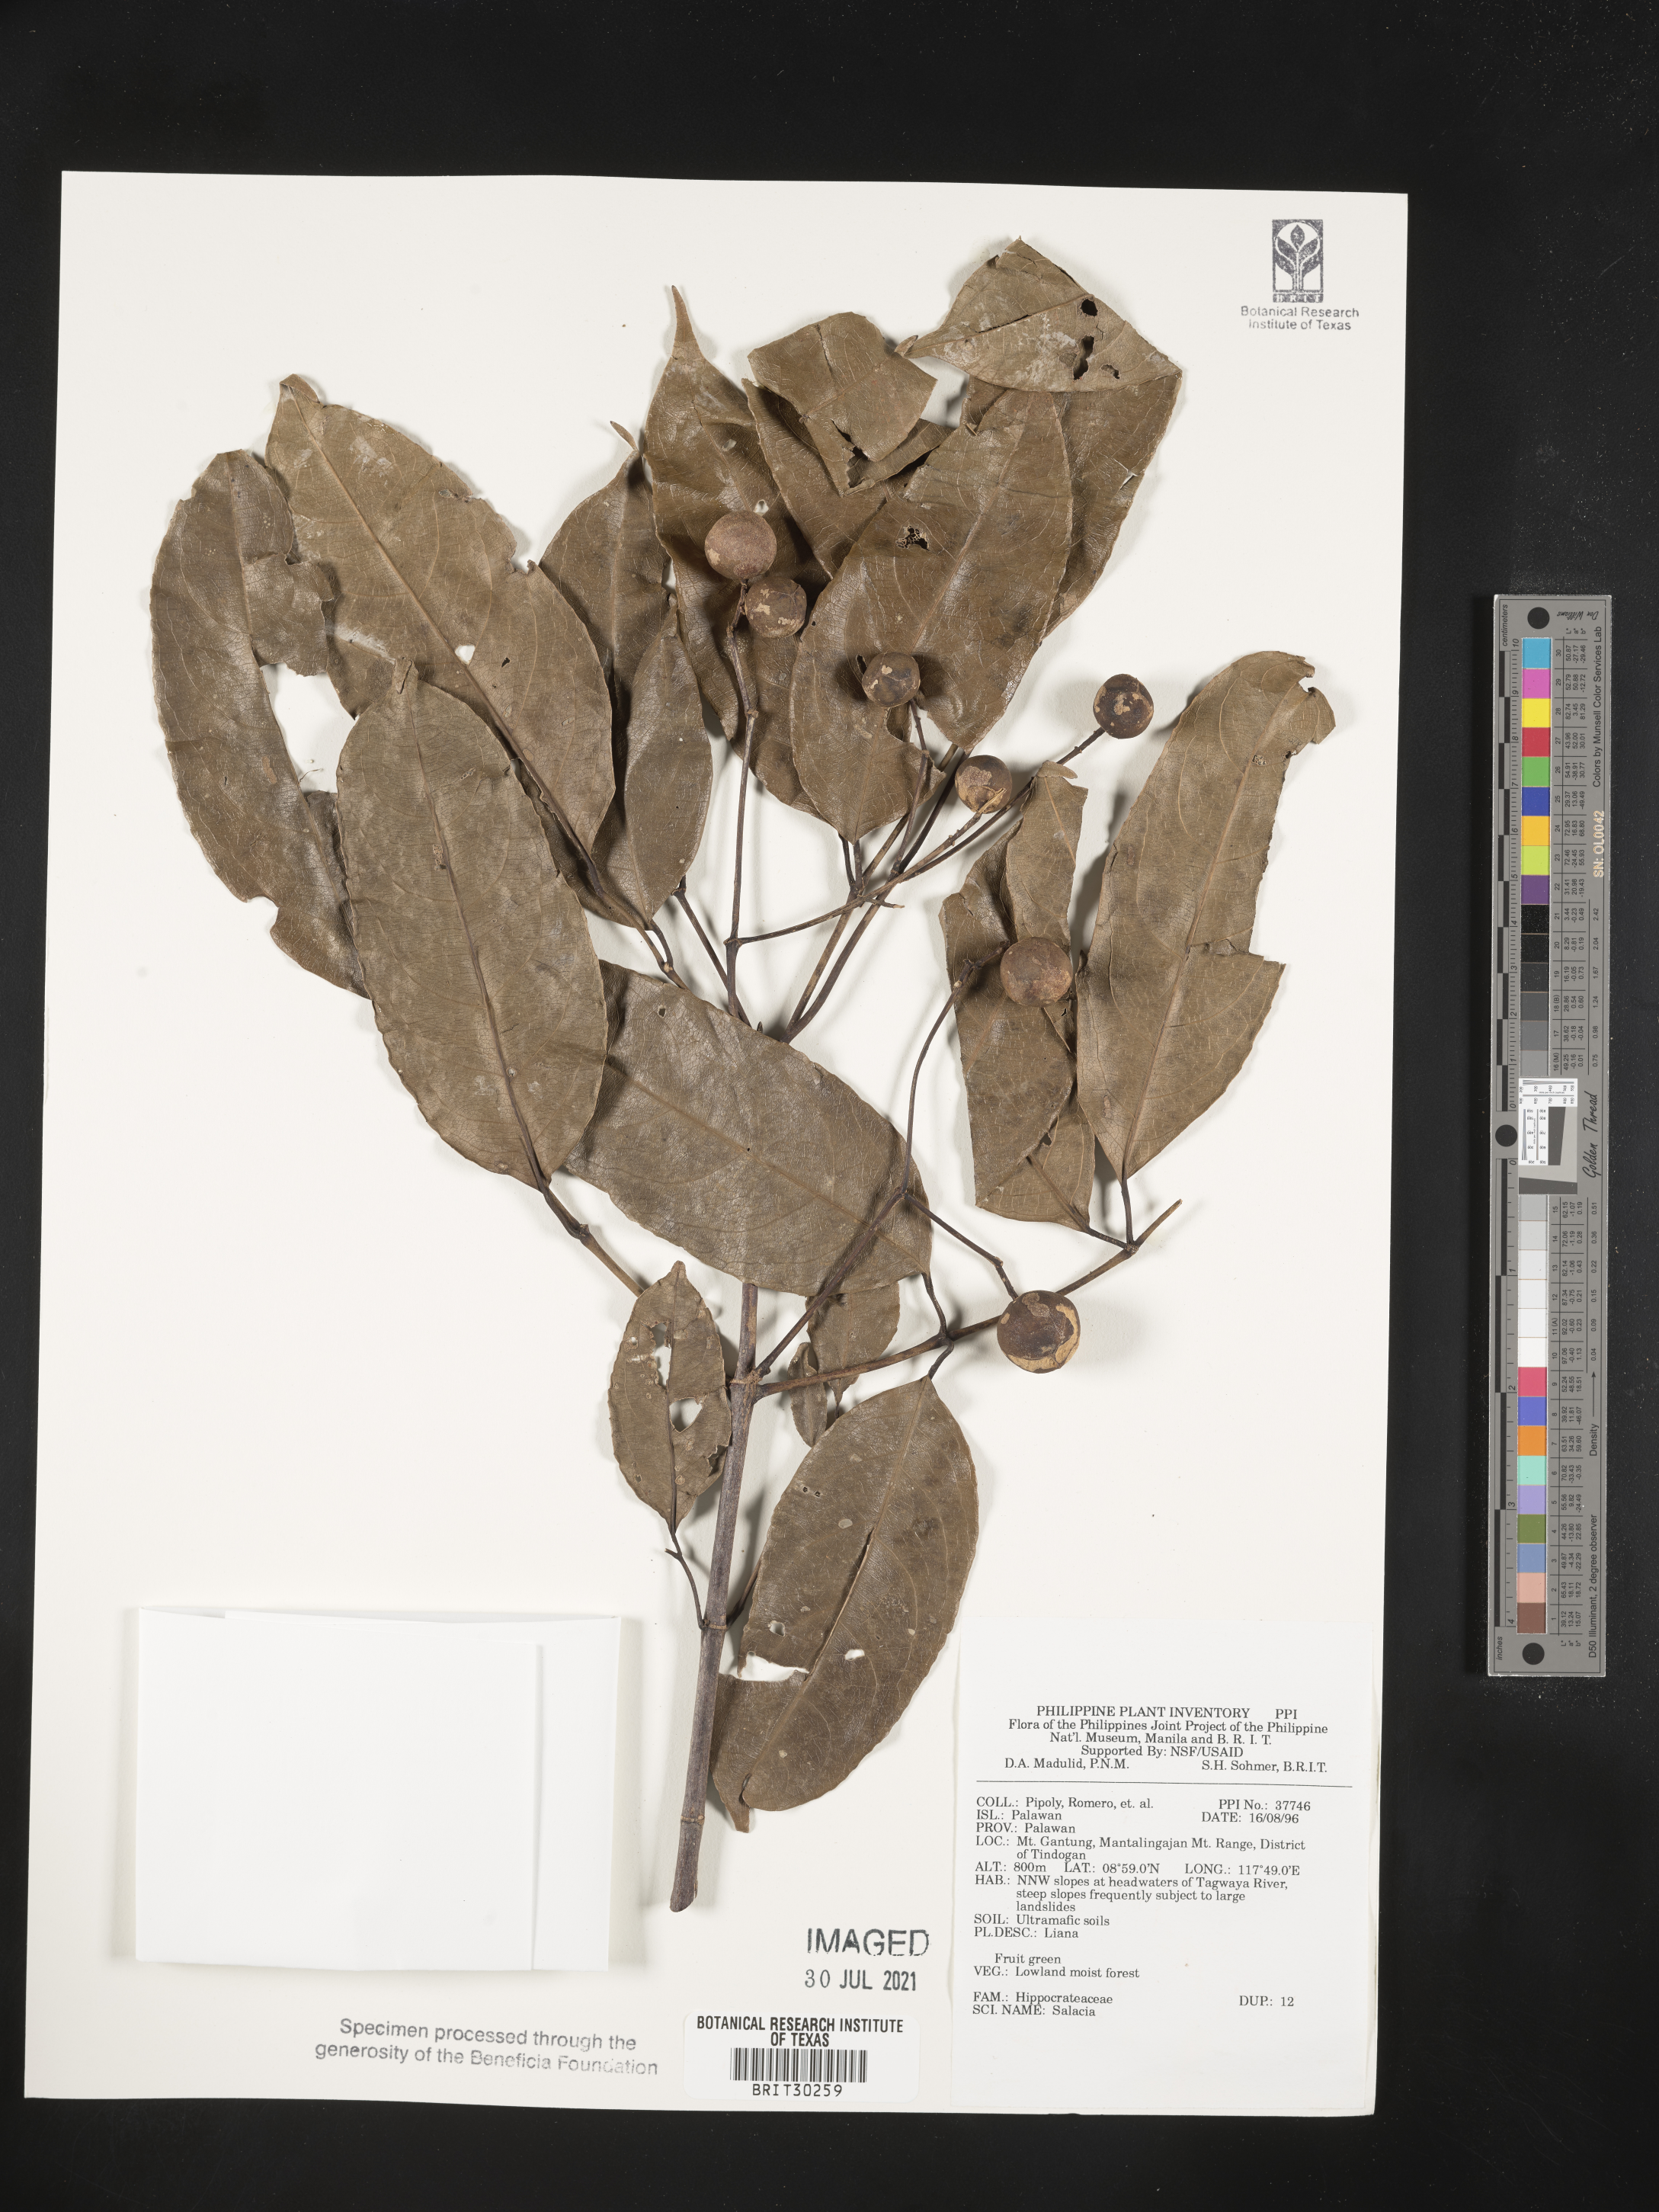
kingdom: Plantae
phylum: Tracheophyta
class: Magnoliopsida
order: Celastrales
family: Celastraceae
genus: Salacia
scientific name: Salacia
